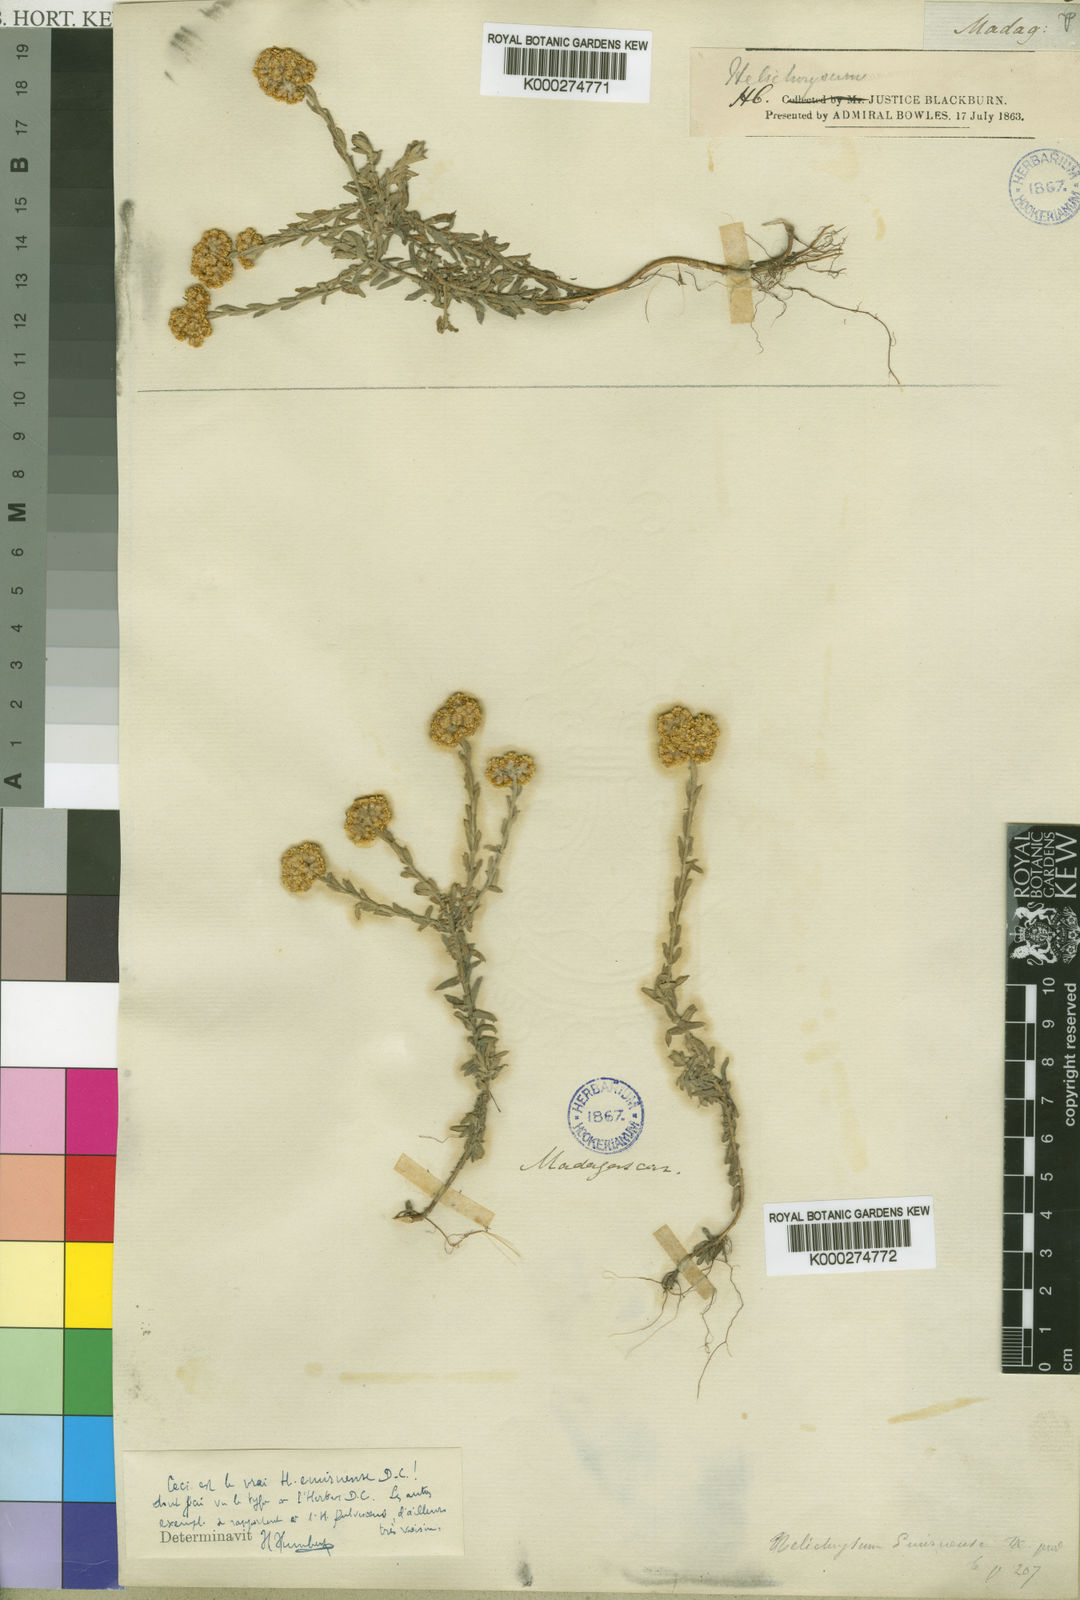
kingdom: Plantae
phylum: Tracheophyta
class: Magnoliopsida
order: Asterales
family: Asteraceae
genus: Helichrysum
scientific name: Helichrysum
